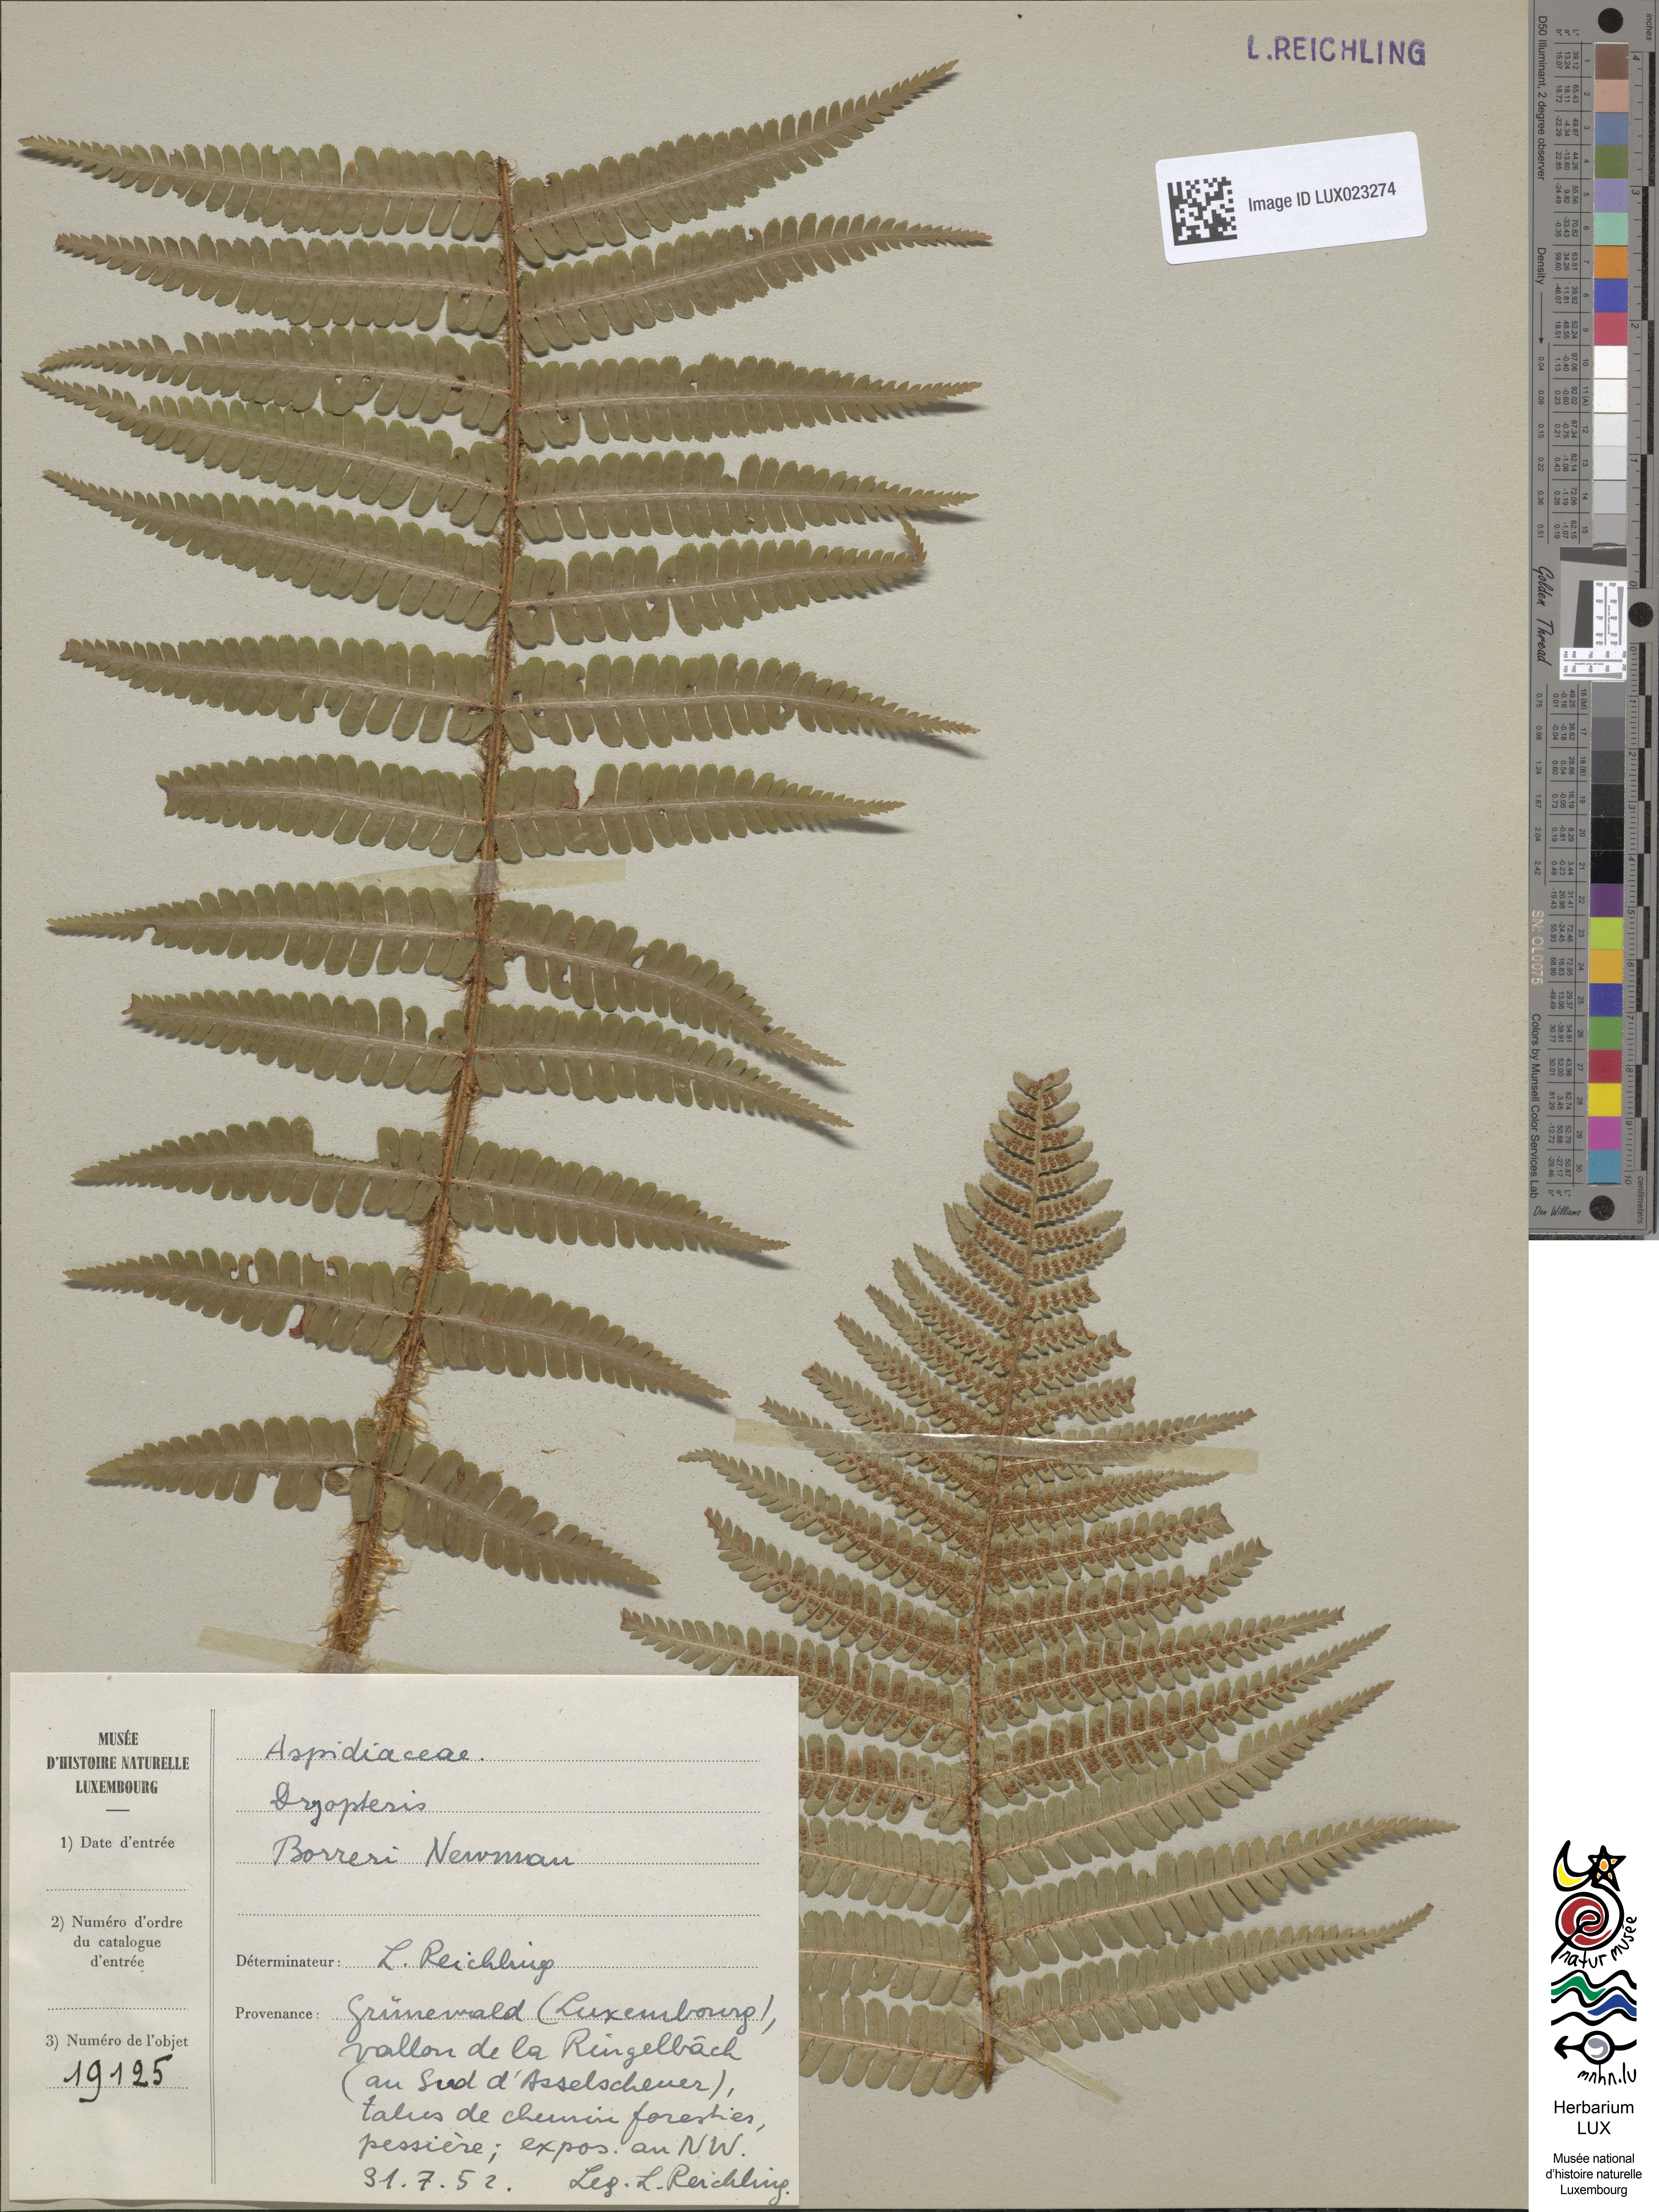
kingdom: Plantae
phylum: Tracheophyta
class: Polypodiopsida
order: Polypodiales
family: Dryopteridaceae
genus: Dryopteris
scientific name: Dryopteris
